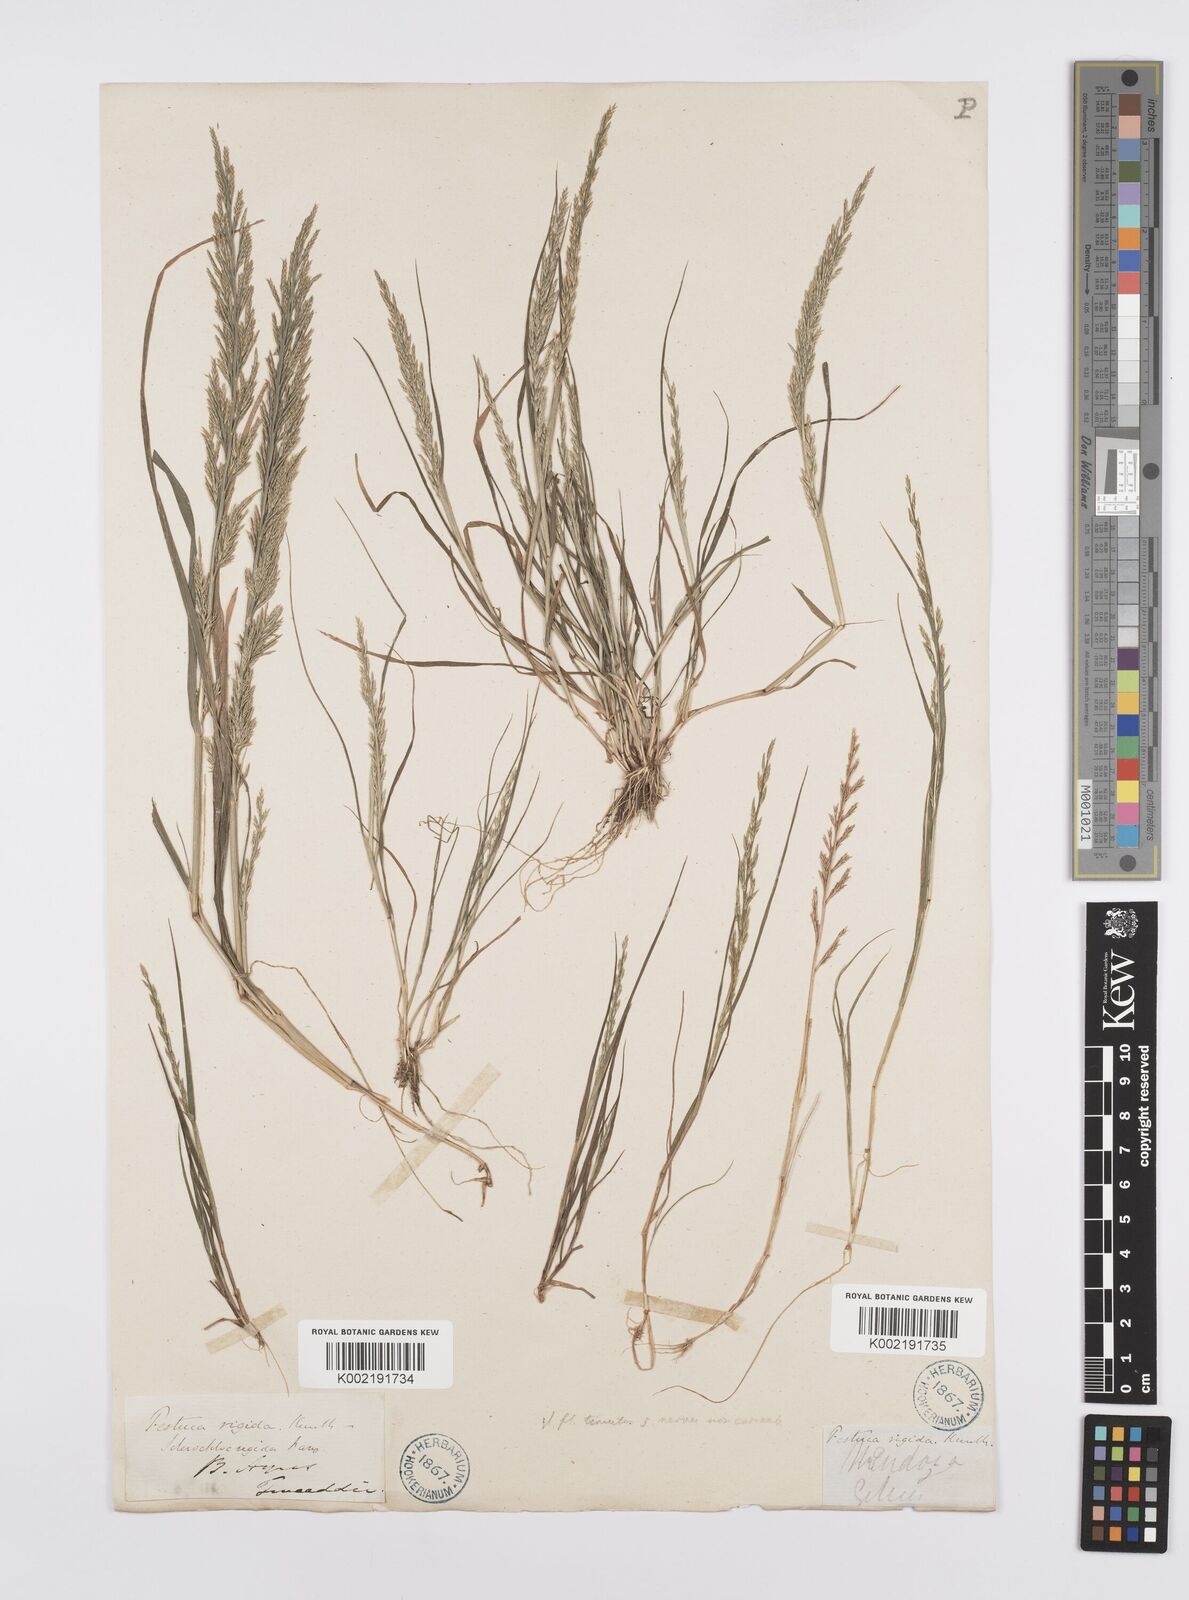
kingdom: Plantae
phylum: Tracheophyta
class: Liliopsida
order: Poales
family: Poaceae
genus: Catapodium
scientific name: Catapodium rigidum
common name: Fern-grass
